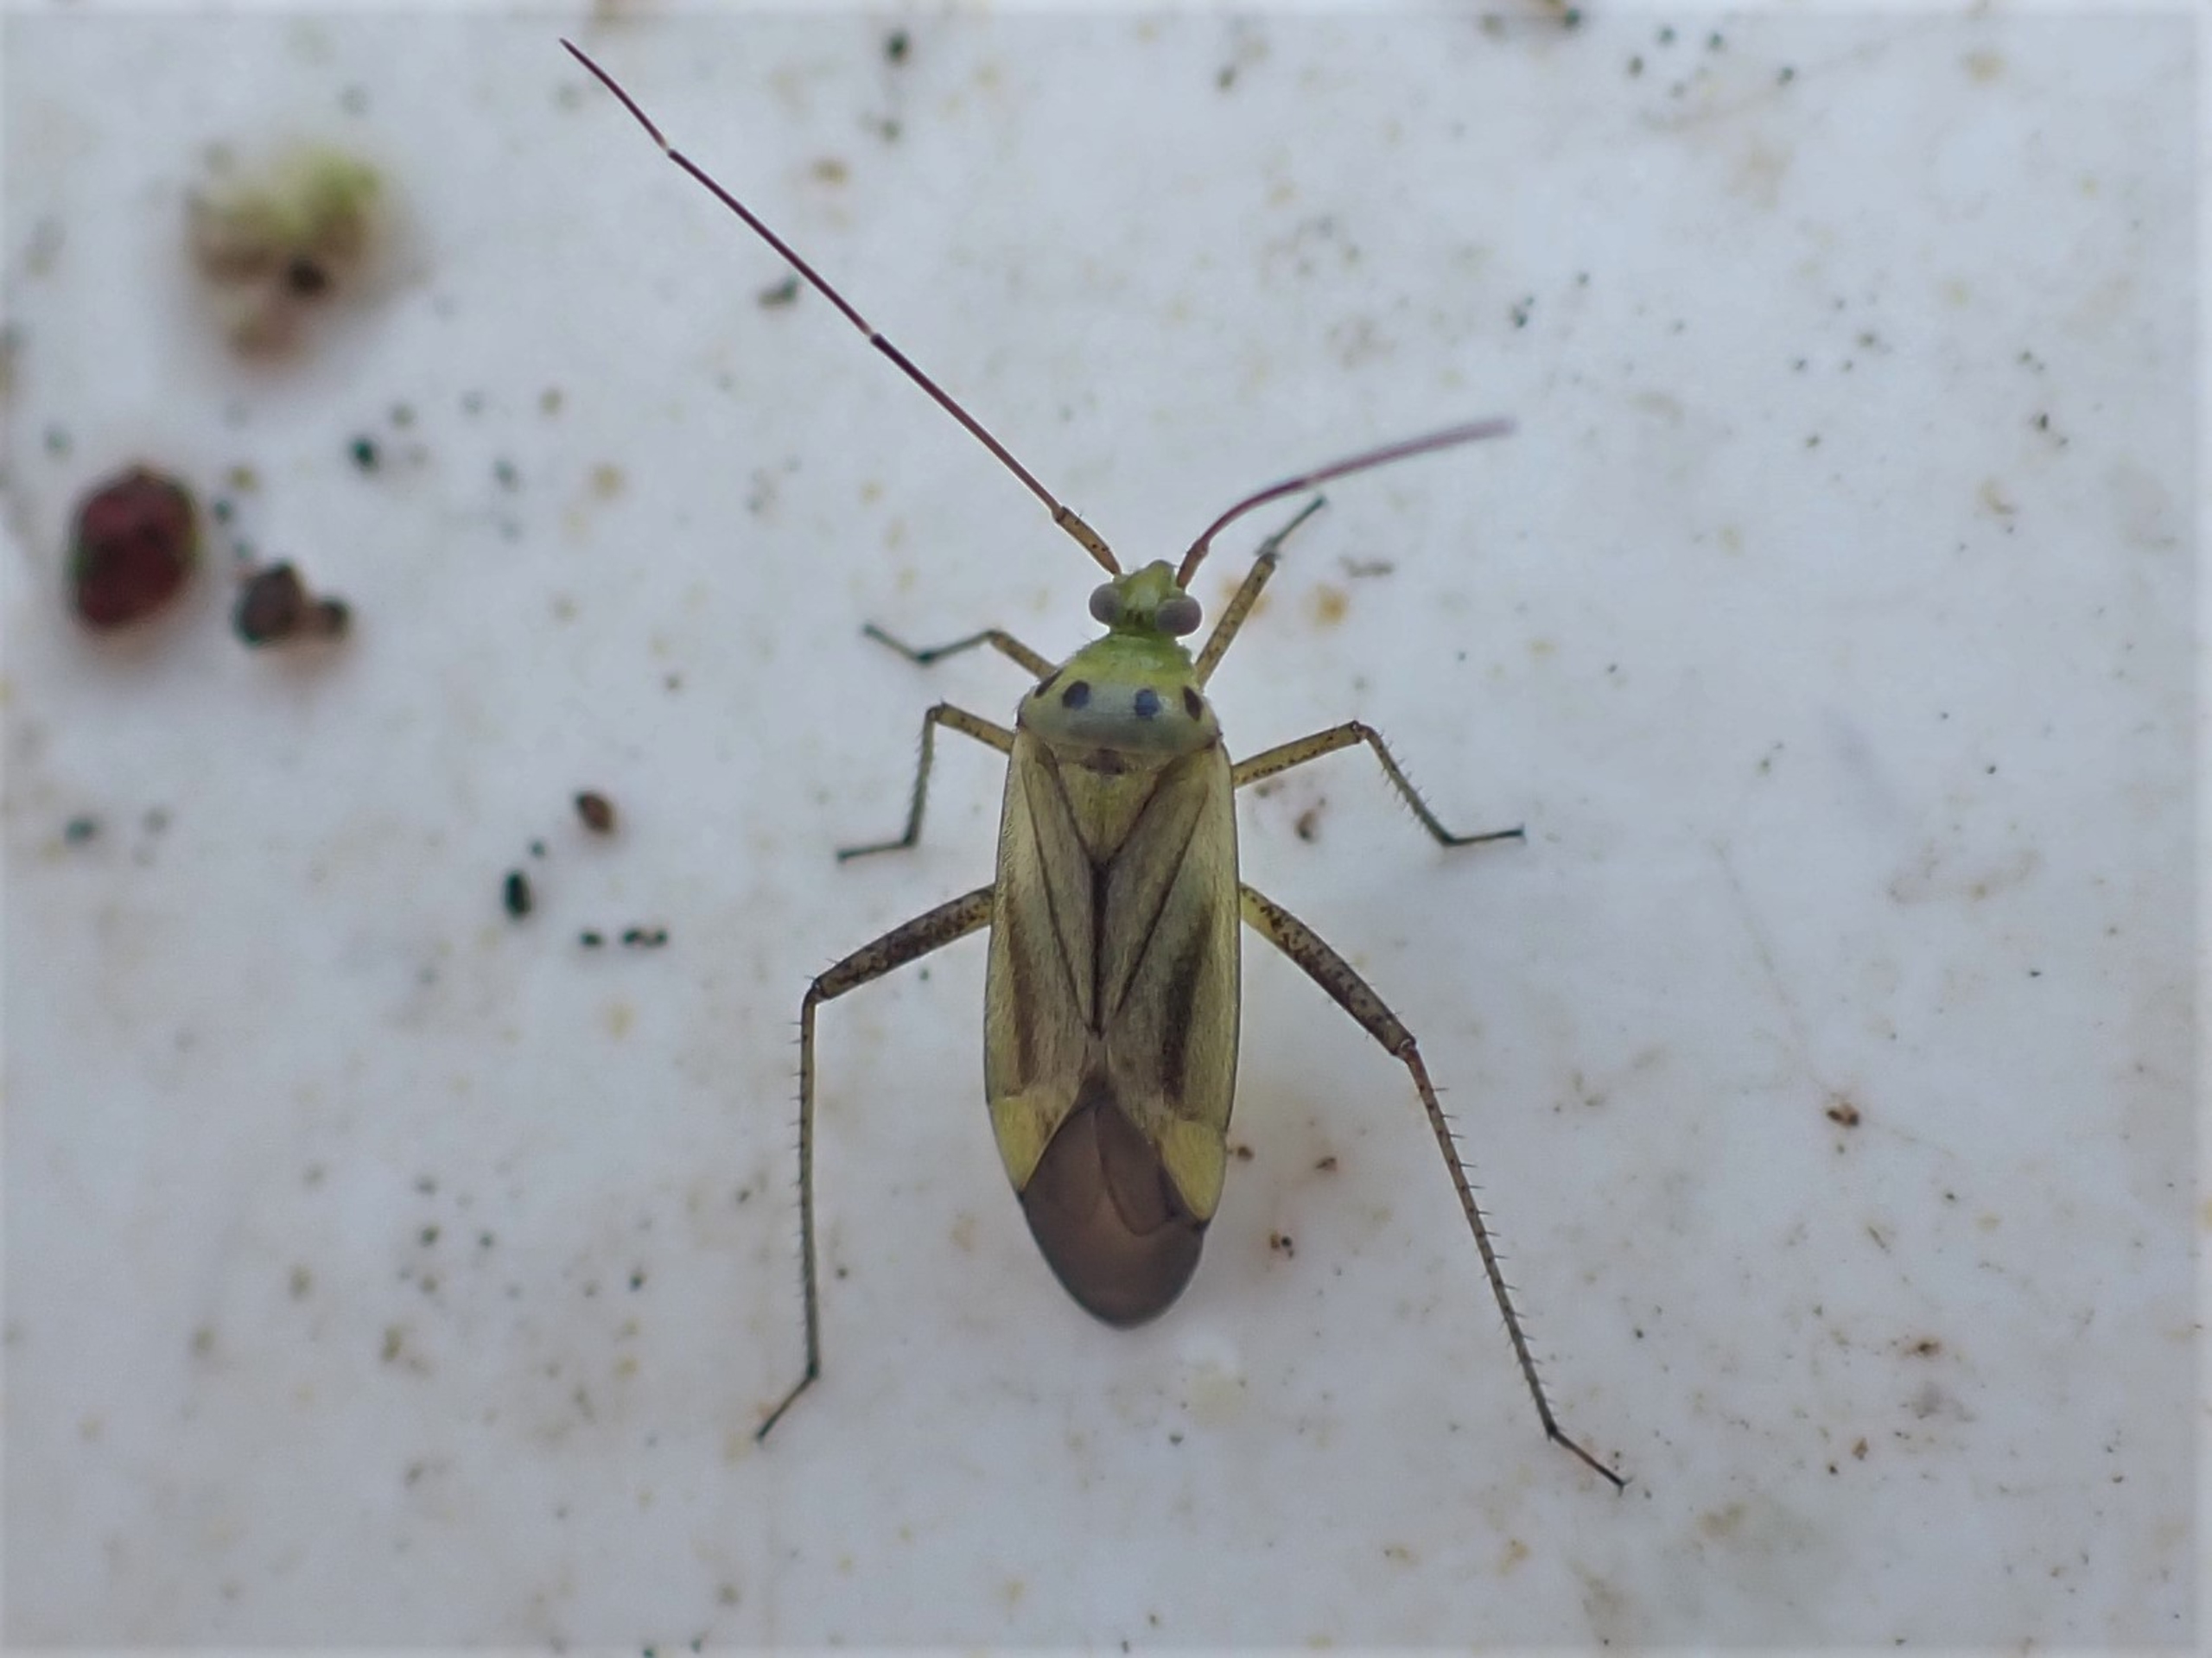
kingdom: Animalia
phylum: Arthropoda
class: Insecta
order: Hemiptera
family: Miridae
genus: Adelphocoris
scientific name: Adelphocoris quadripunctatus
